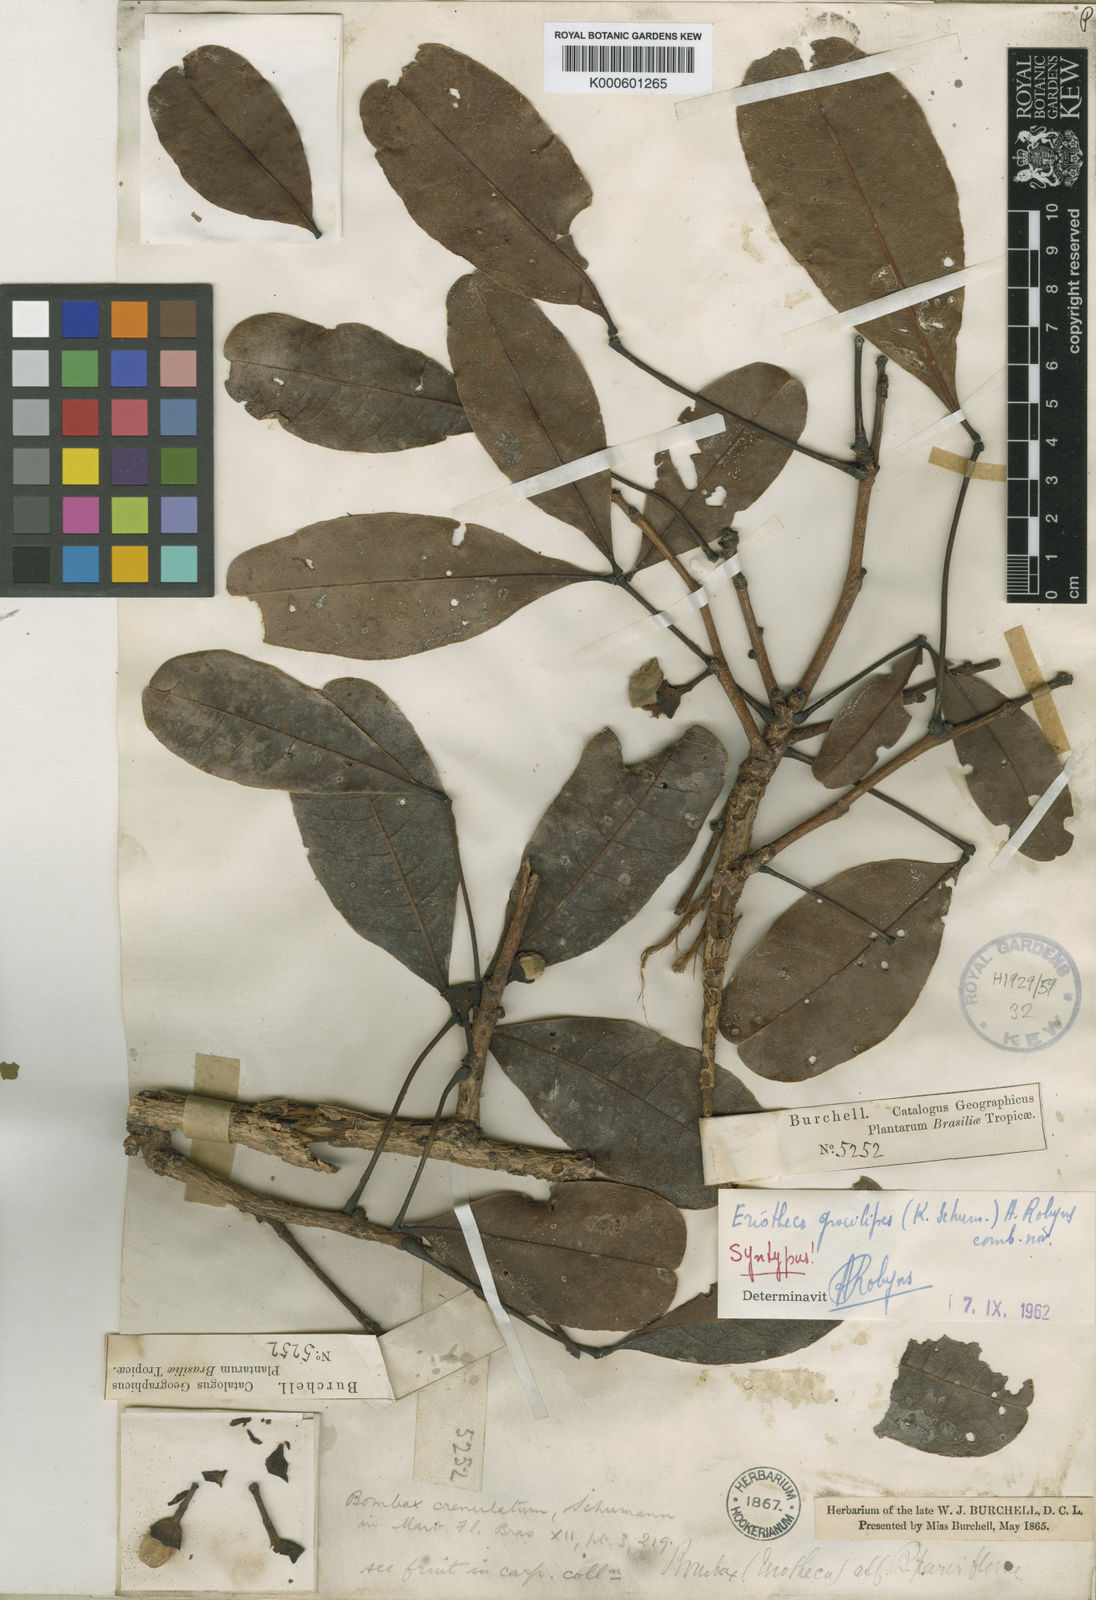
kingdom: Plantae
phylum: Tracheophyta
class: Magnoliopsida
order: Malvales
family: Malvaceae
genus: Eriotheca
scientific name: Eriotheca gracilipes
